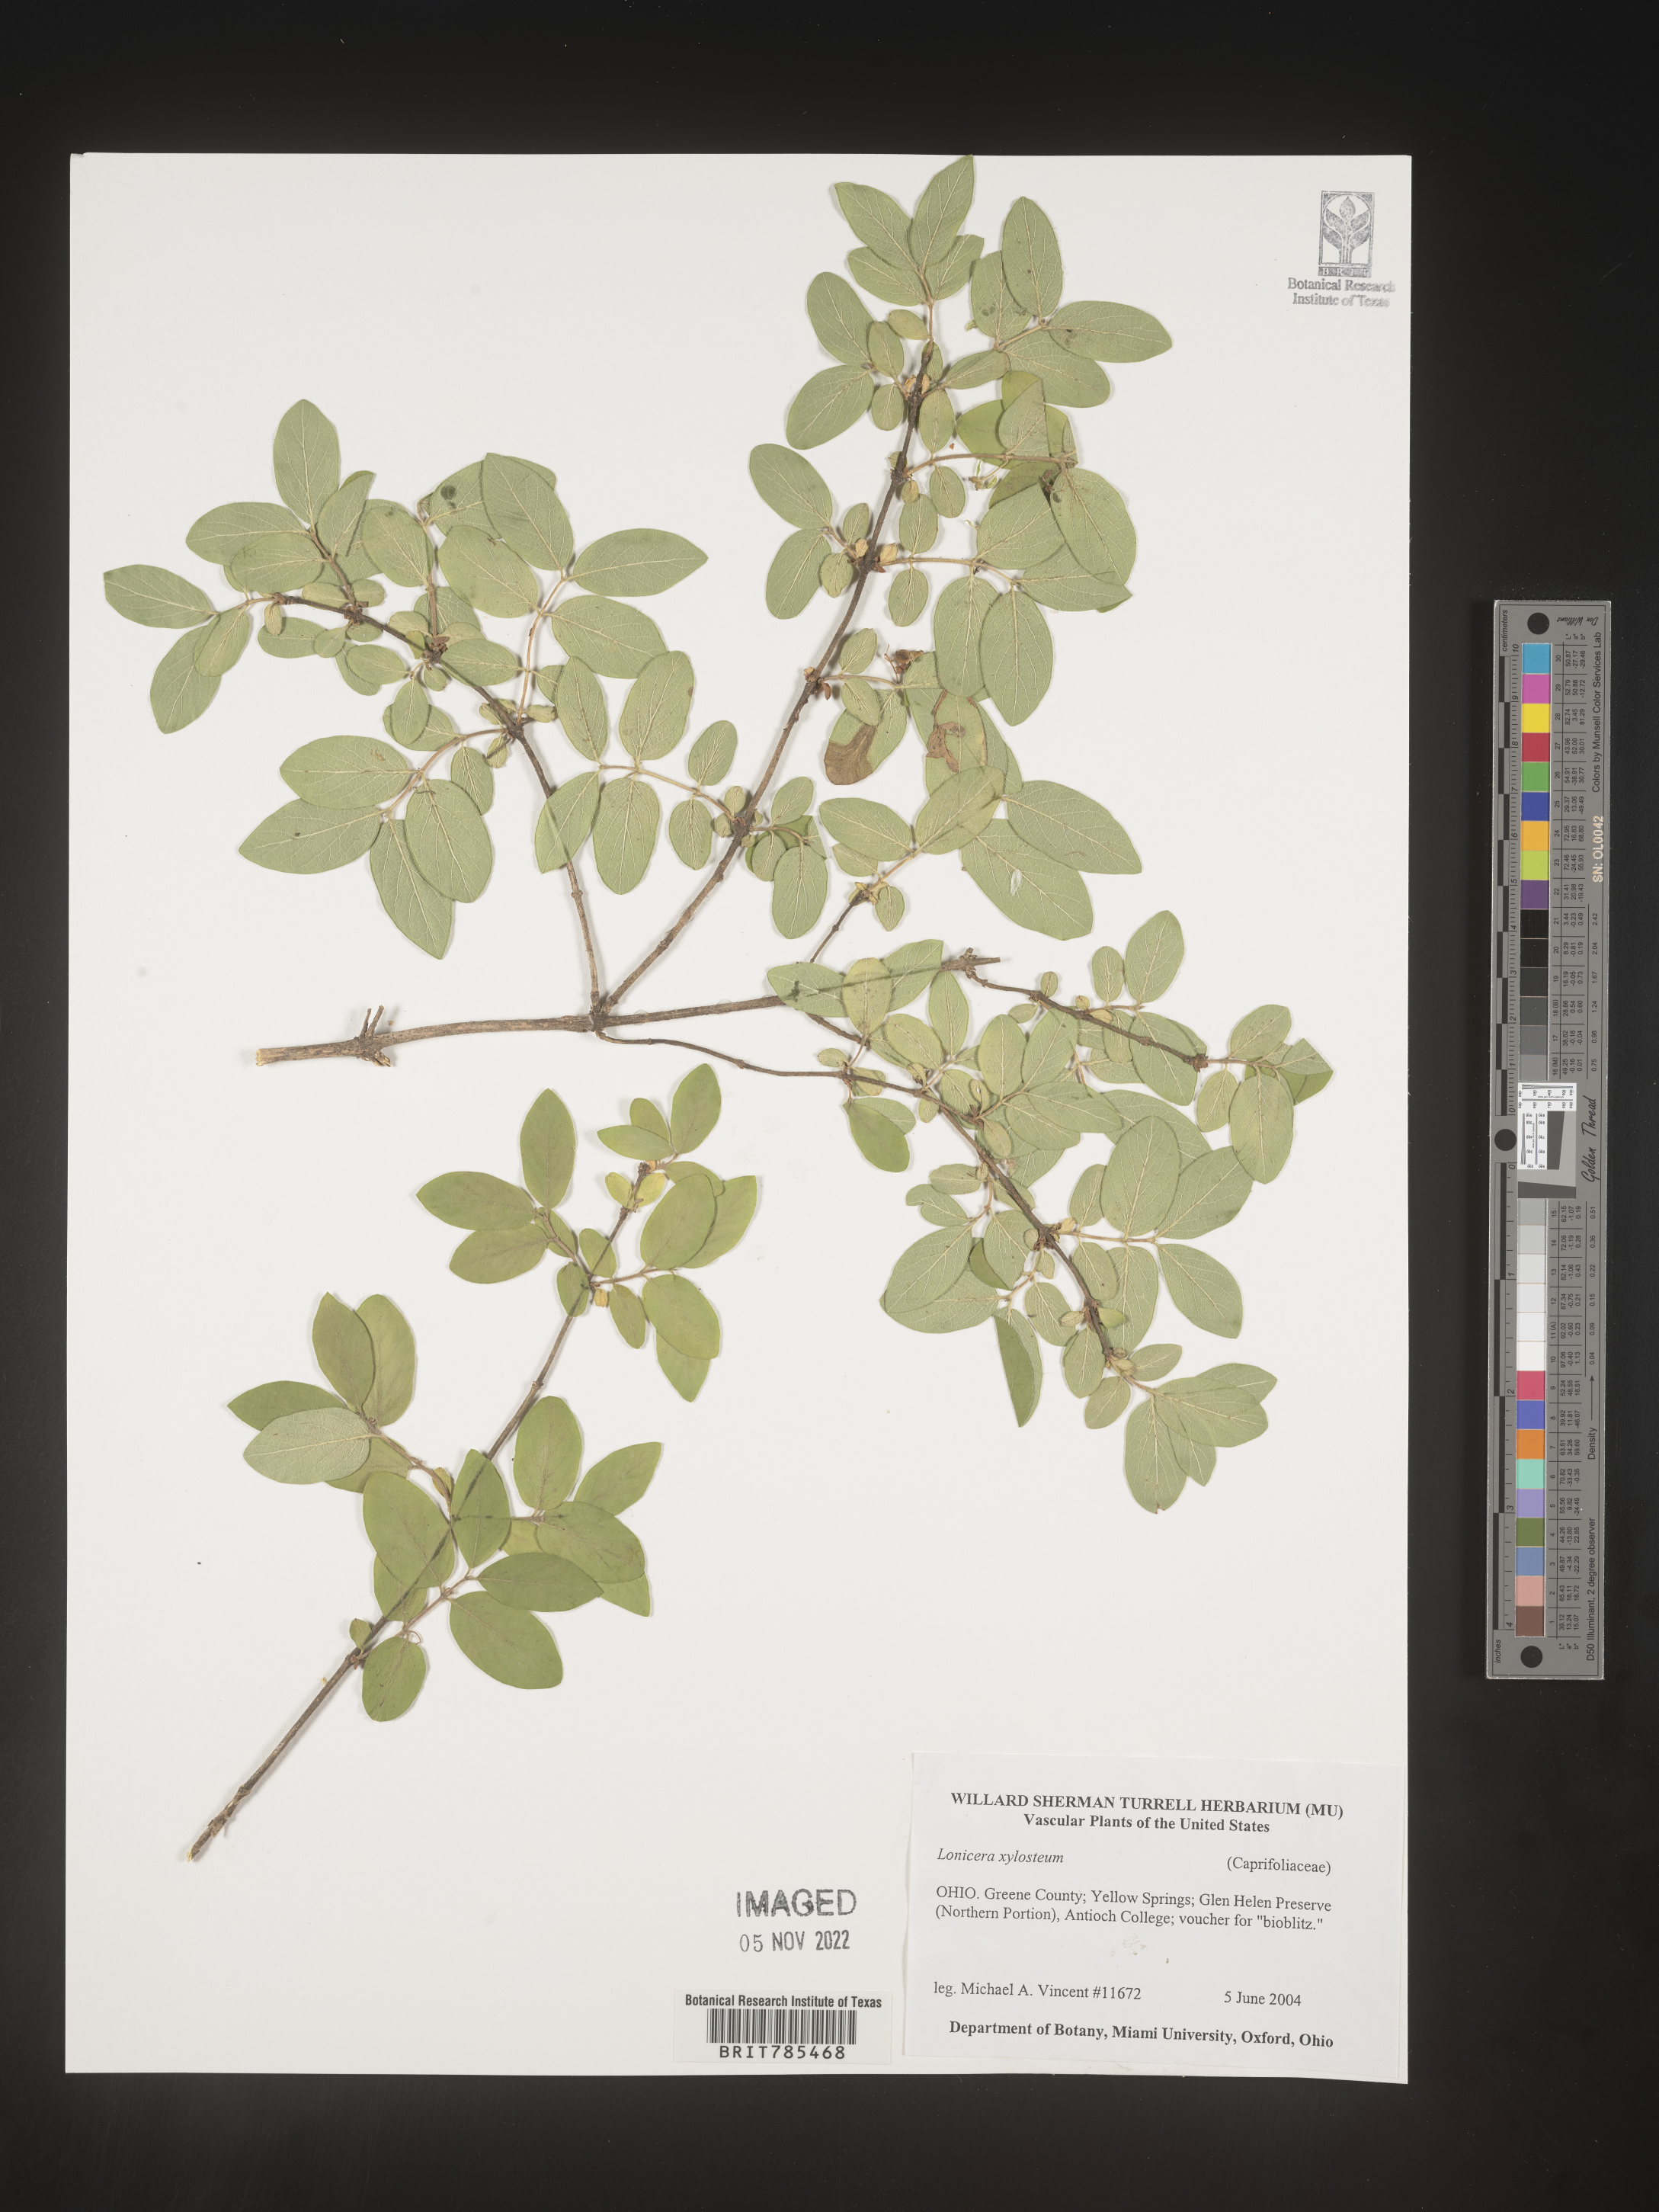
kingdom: Plantae
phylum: Tracheophyta
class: Magnoliopsida
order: Dipsacales
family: Caprifoliaceae
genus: Lonicera
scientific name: Lonicera
